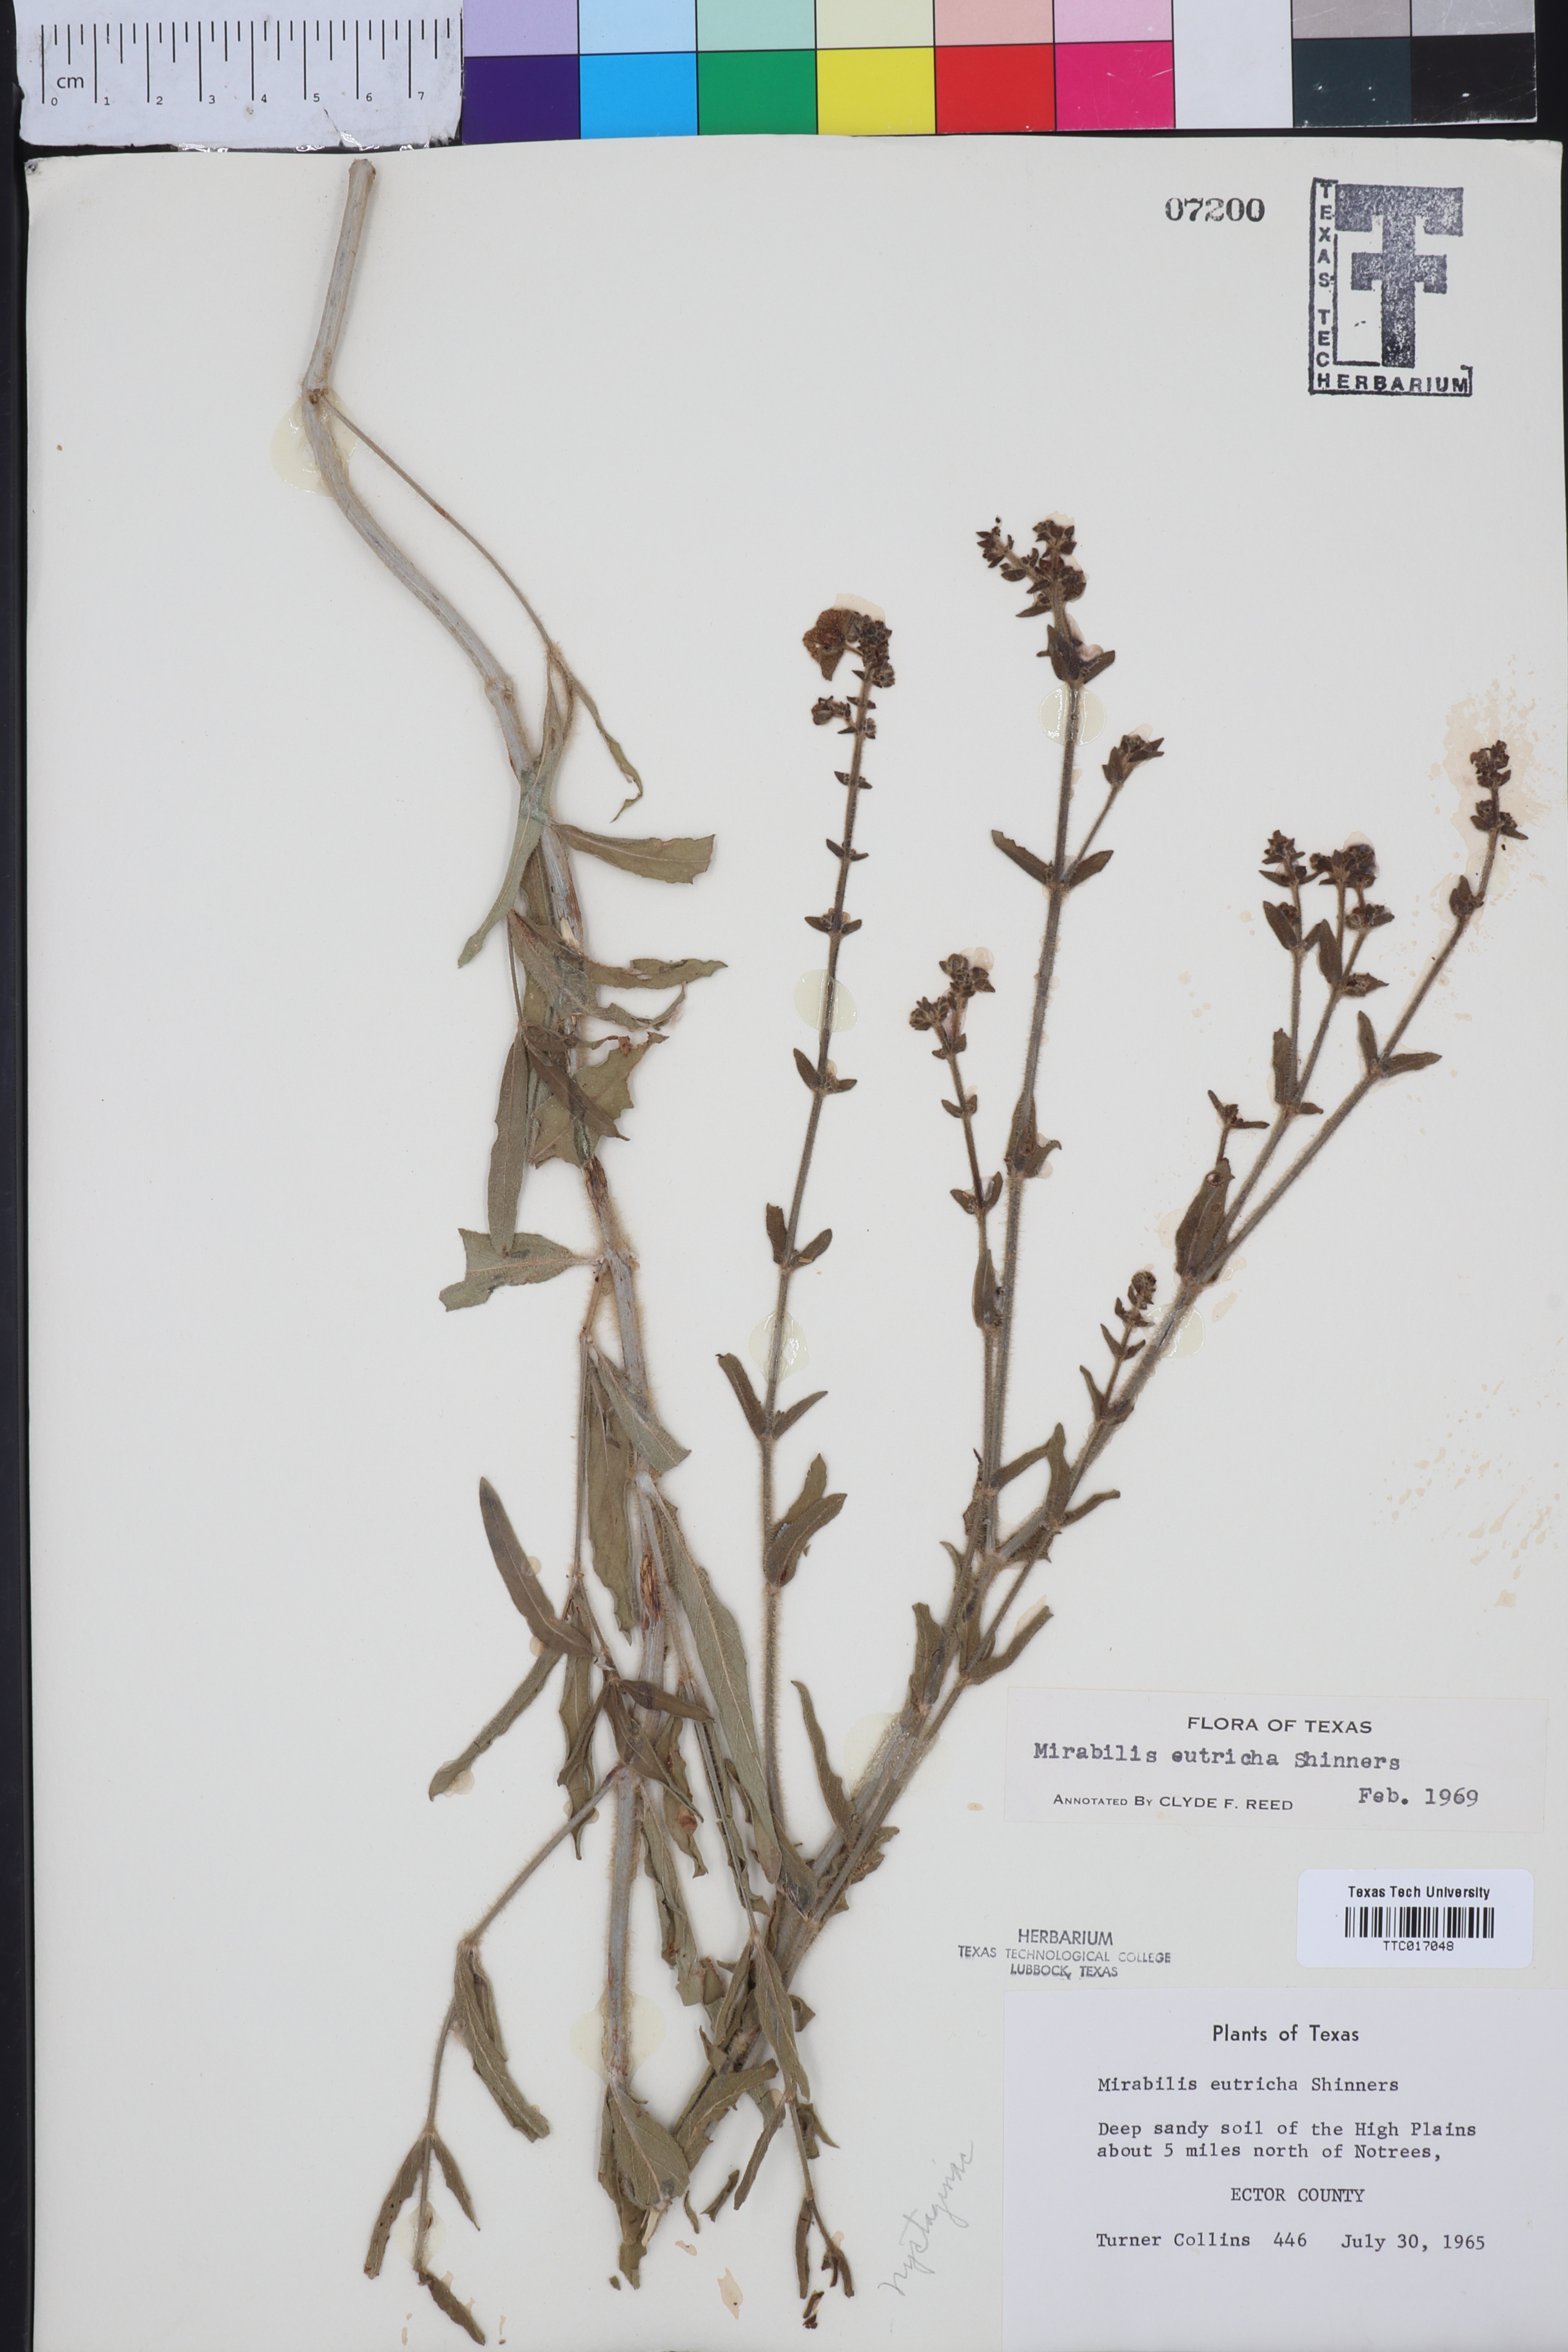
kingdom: Plantae
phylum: Tracheophyta
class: Magnoliopsida
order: Caryophyllales
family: Nyctaginaceae
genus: Mirabilis
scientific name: Mirabilis albida
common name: Hairy four-o'clock
